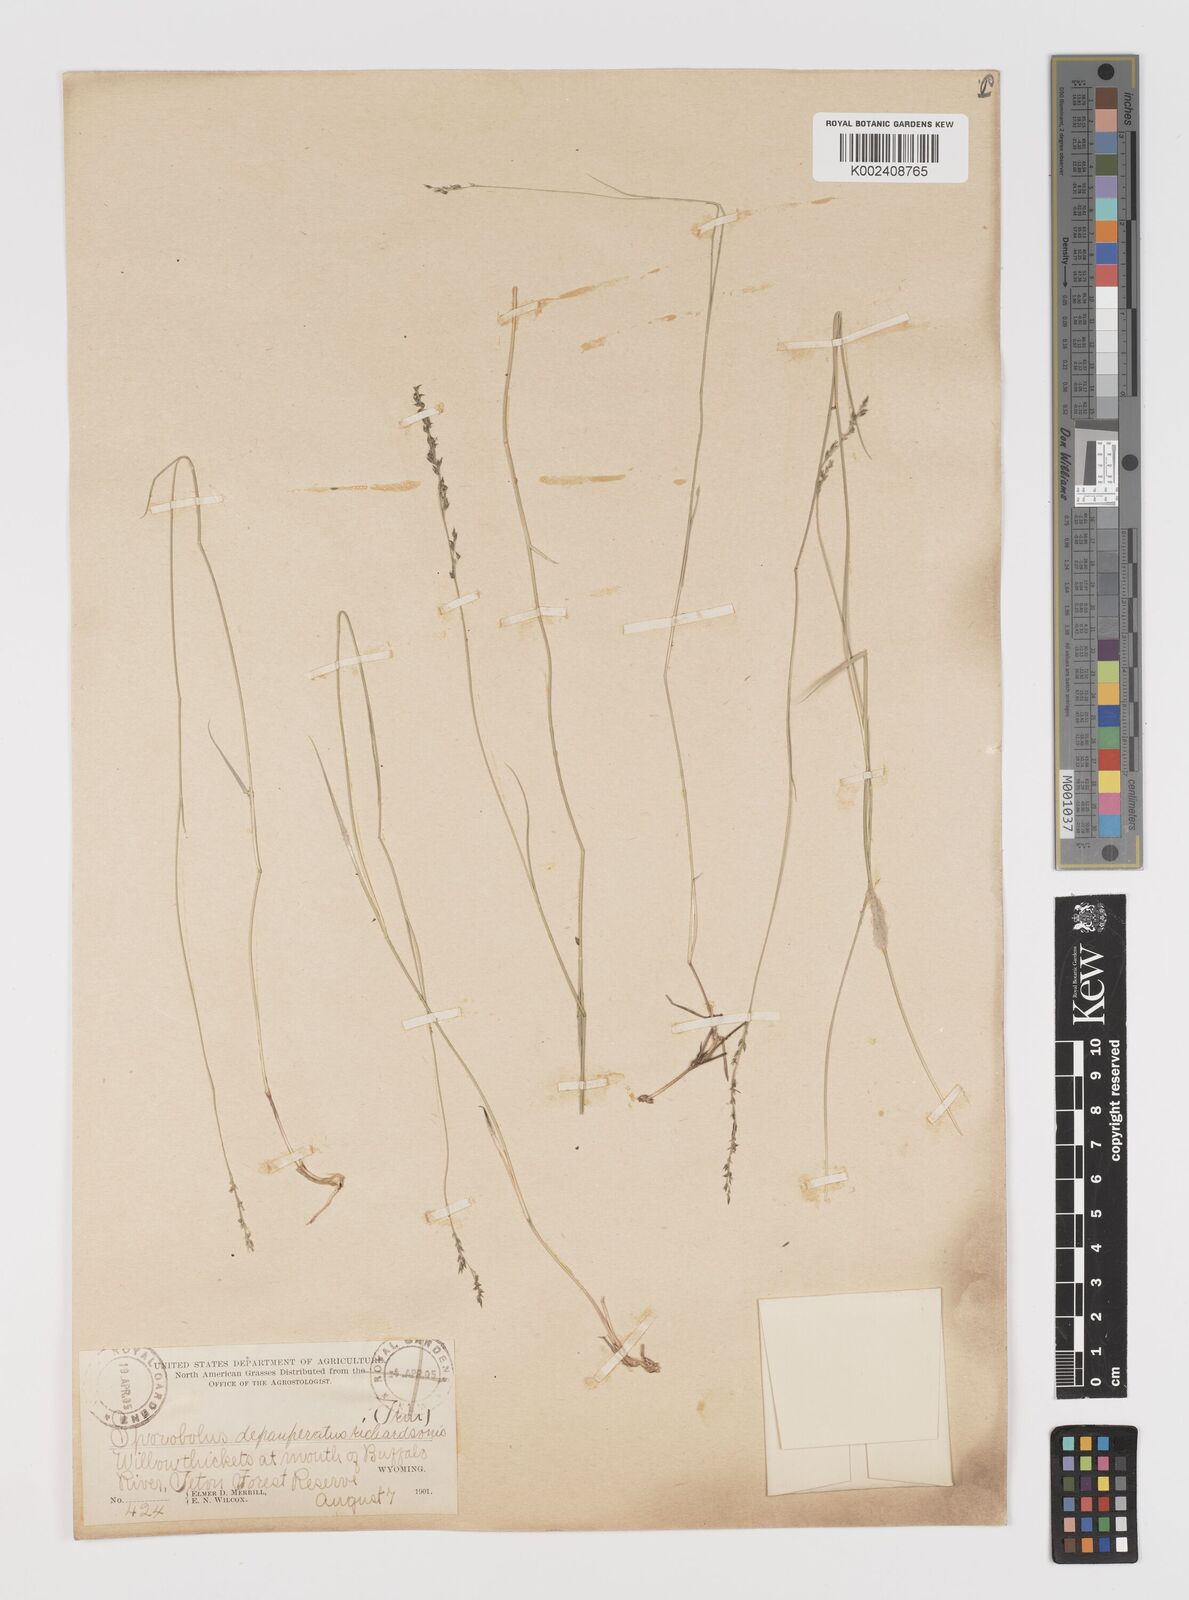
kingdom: Plantae
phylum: Tracheophyta
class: Liliopsida
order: Poales
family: Poaceae
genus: Muhlenbergia
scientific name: Muhlenbergia richardsonis
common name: Mat muhly
